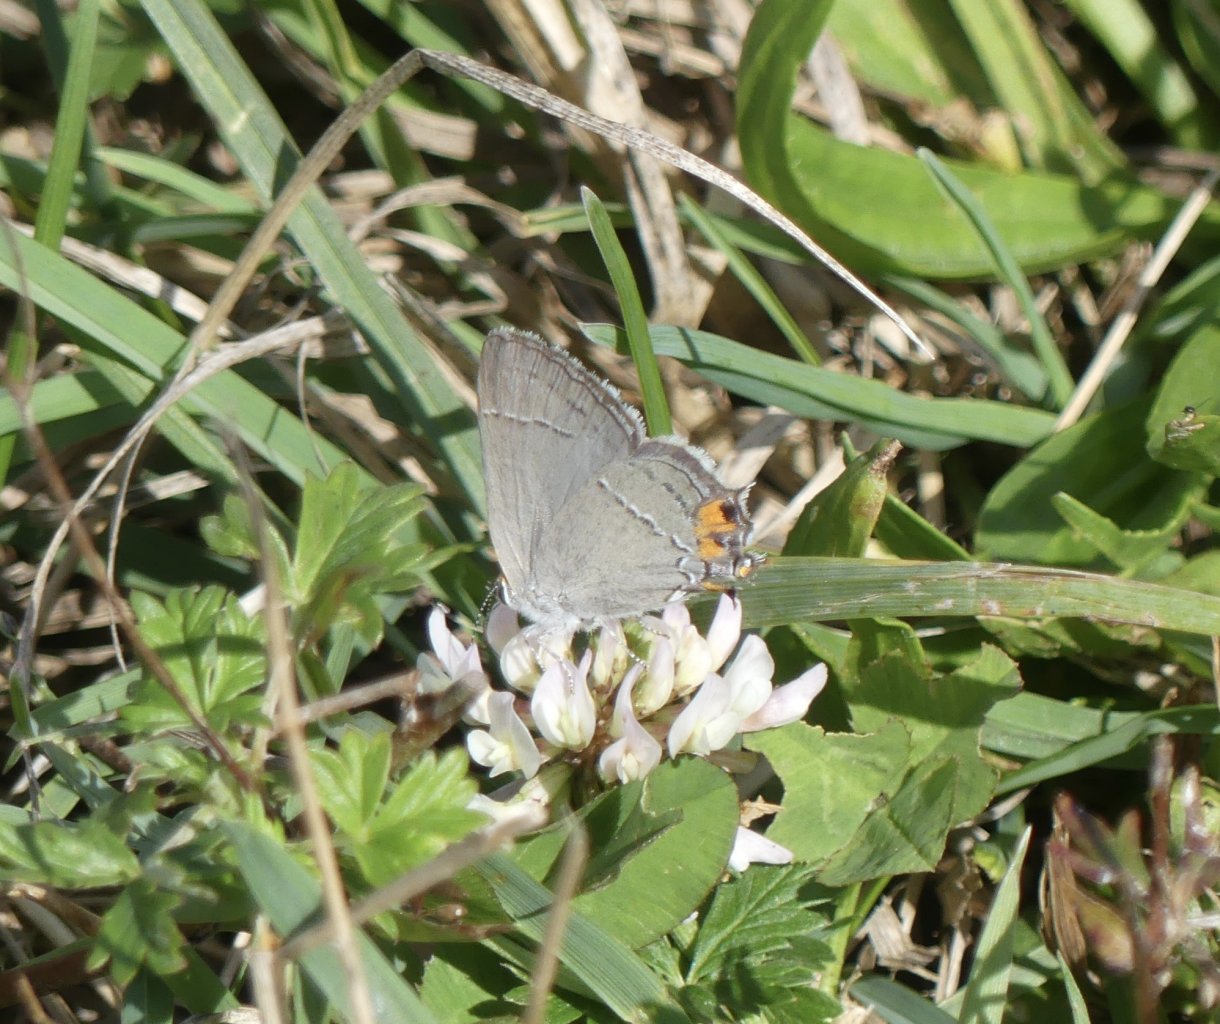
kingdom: Animalia
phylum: Arthropoda
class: Insecta
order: Lepidoptera
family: Lycaenidae
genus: Strymon
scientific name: Strymon melinus
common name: Gray Hairstreak
